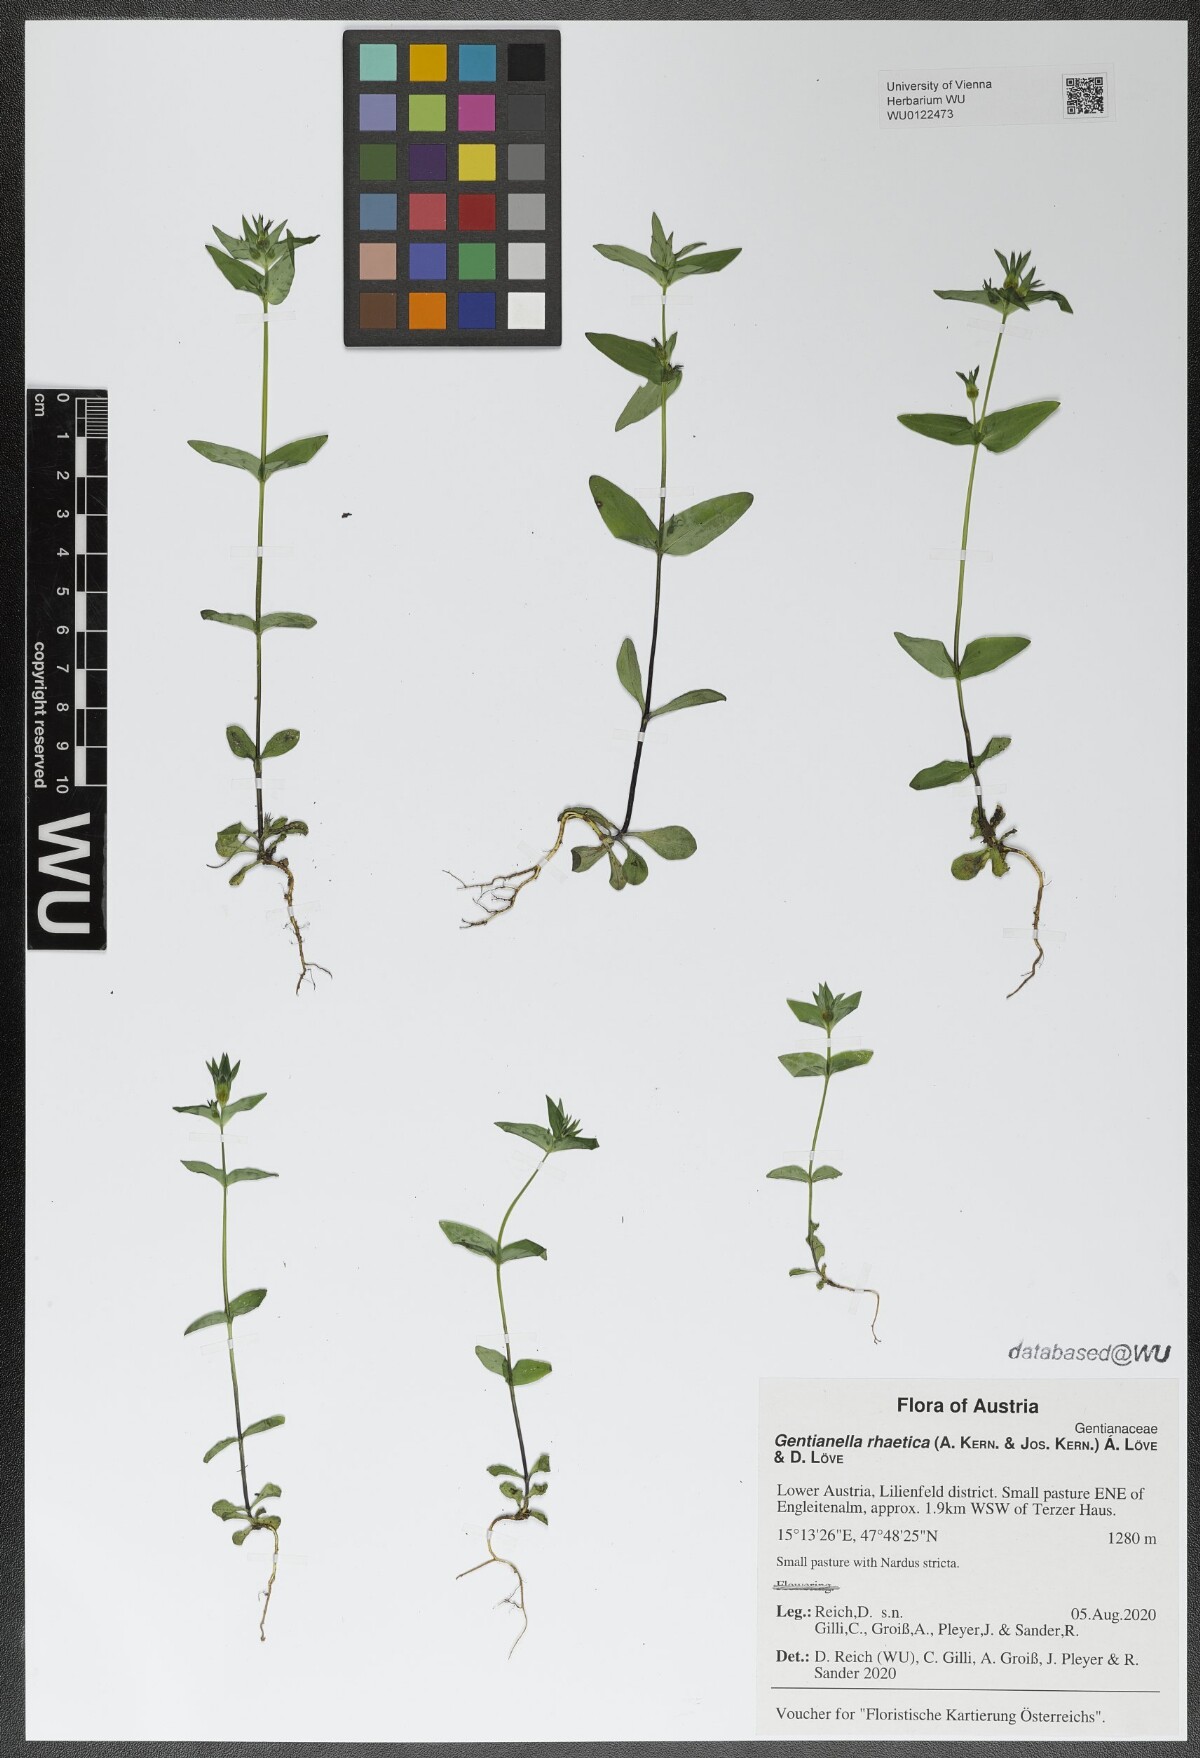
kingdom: Plantae
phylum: Tracheophyta
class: Magnoliopsida
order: Gentianales
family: Gentianaceae
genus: Gentianella
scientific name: Gentianella rhaetica
